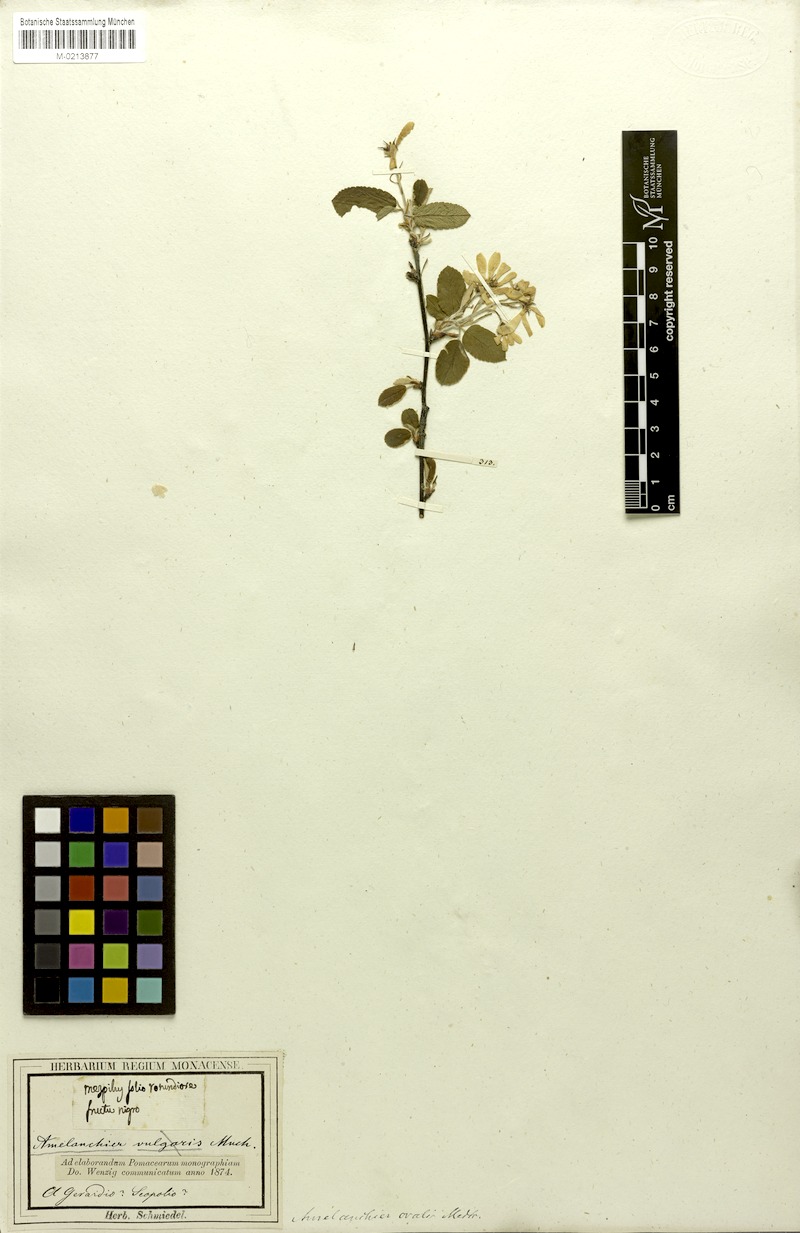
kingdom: Plantae
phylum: Tracheophyta
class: Magnoliopsida
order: Rosales
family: Rosaceae
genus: Amelanchier
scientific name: Amelanchier ovalis
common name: Serviceberry
